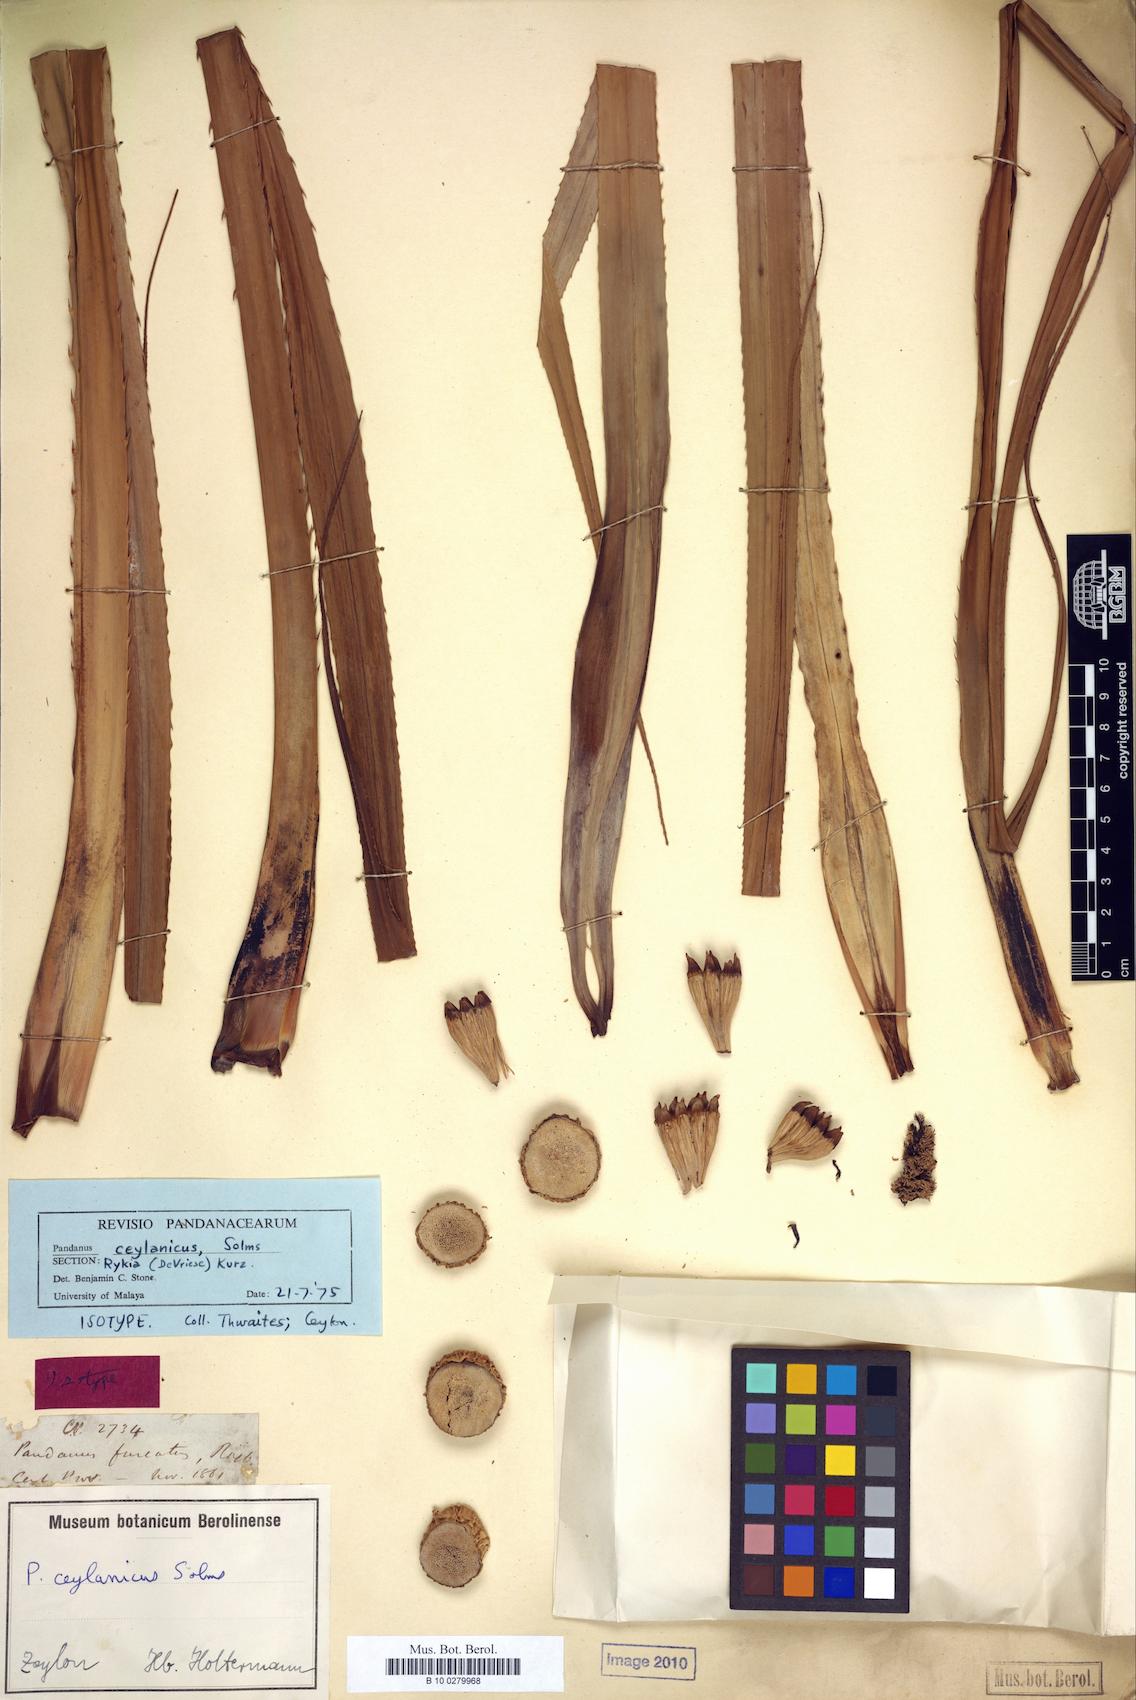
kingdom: Plantae
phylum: Tracheophyta
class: Liliopsida
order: Pandanales
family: Pandanaceae
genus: Pandanus
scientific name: Pandanus ceylanicus
